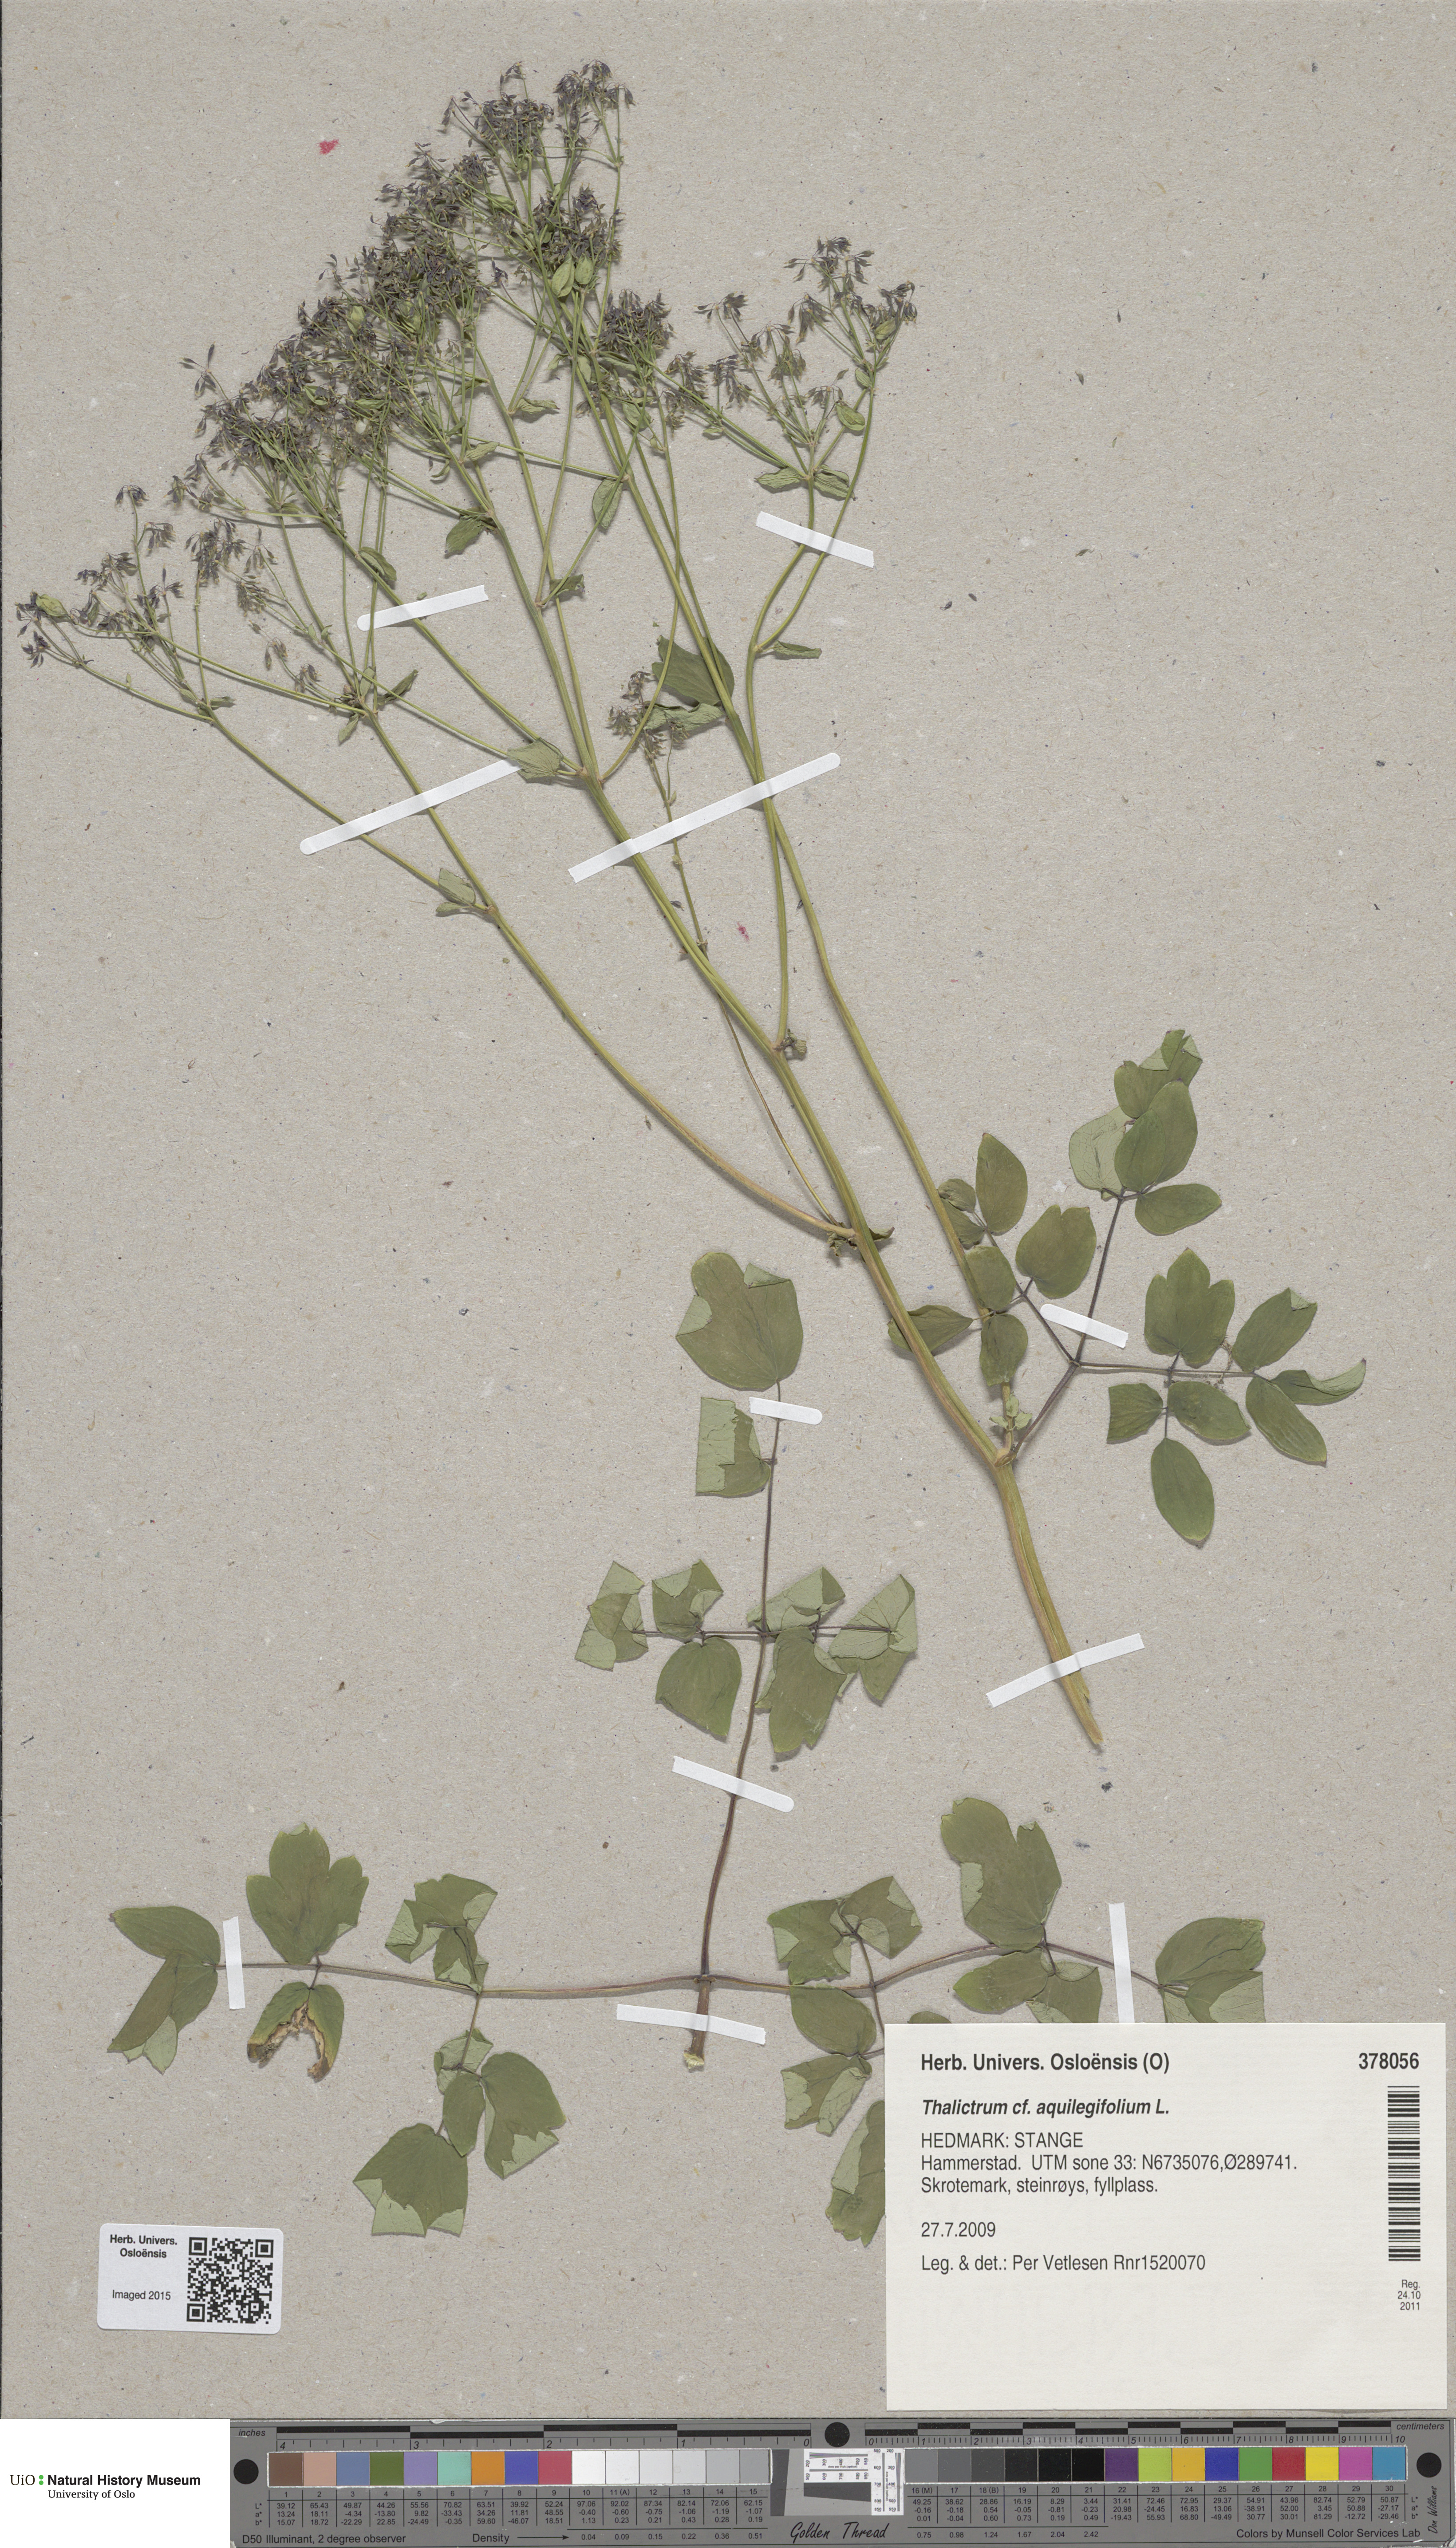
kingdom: Plantae
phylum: Tracheophyta
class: Magnoliopsida
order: Ranunculales
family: Ranunculaceae
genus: Thalictrum
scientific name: Thalictrum aquilegiifolium
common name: French meadow-rue
